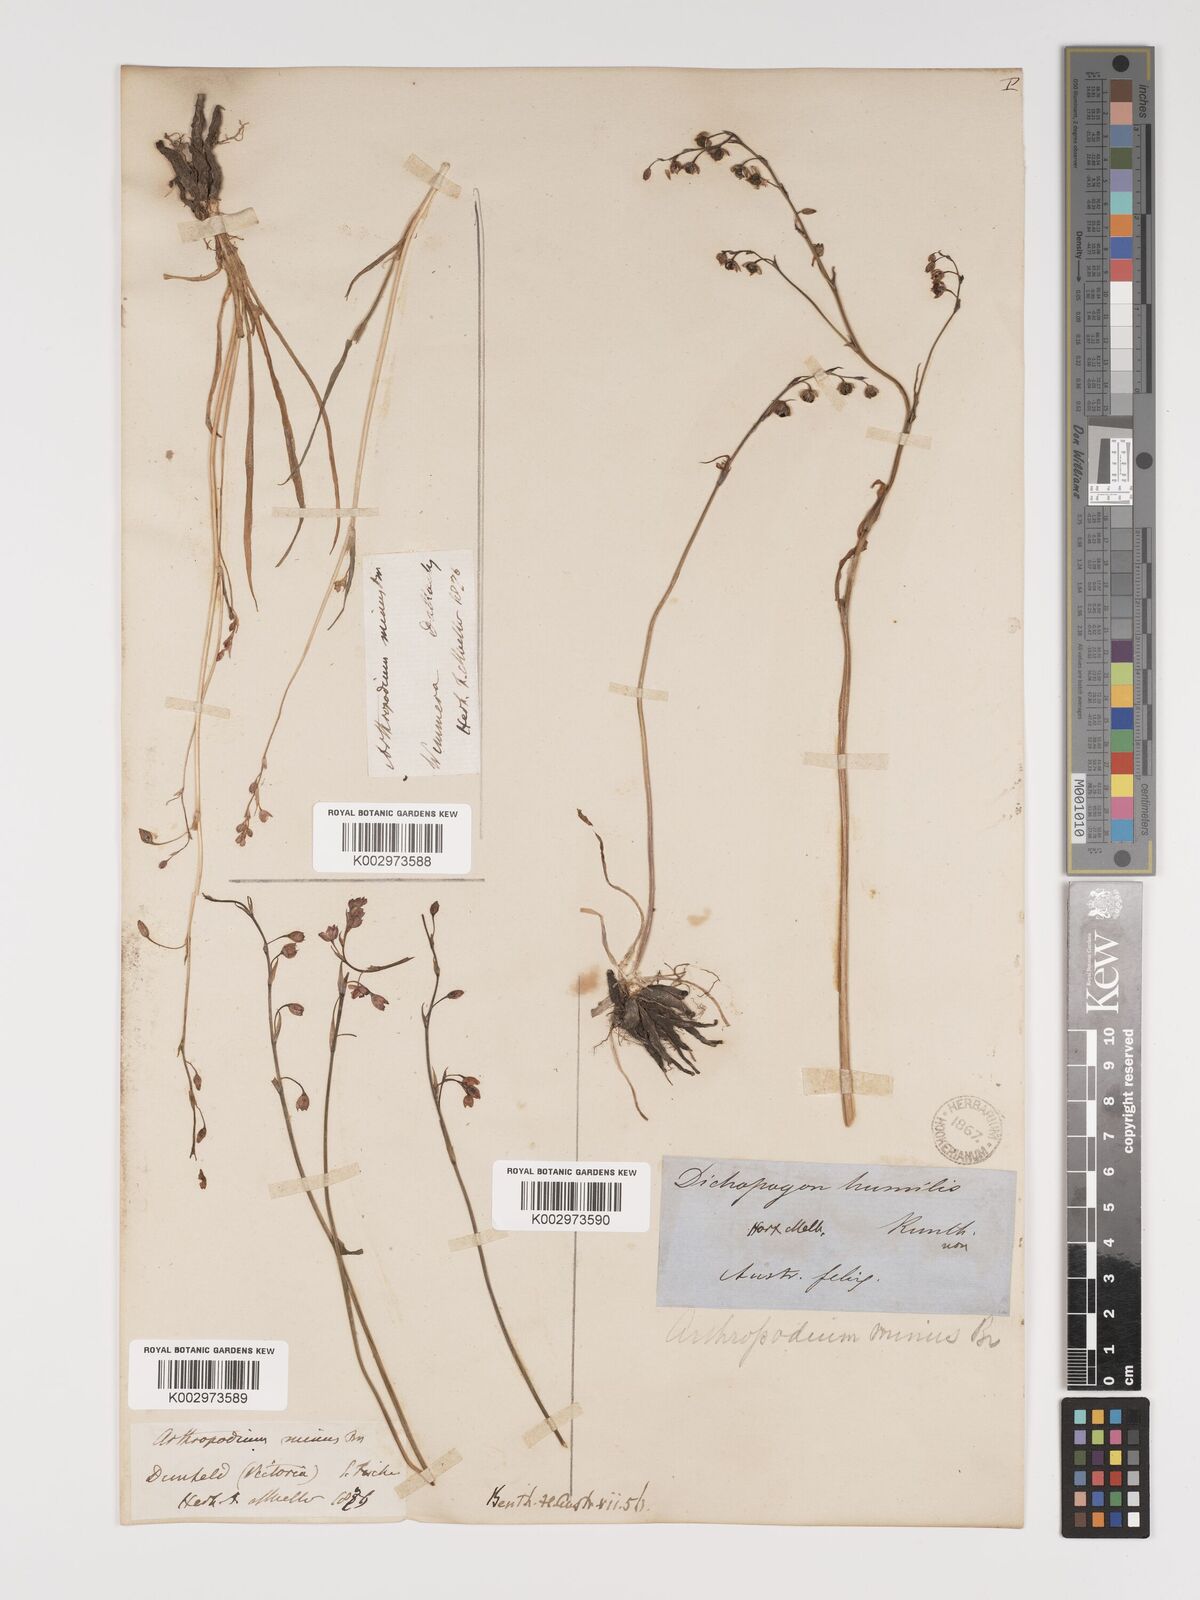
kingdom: Plantae
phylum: Tracheophyta
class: Liliopsida
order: Asparagales
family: Asparagaceae
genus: Arthropodium
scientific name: Arthropodium minus
